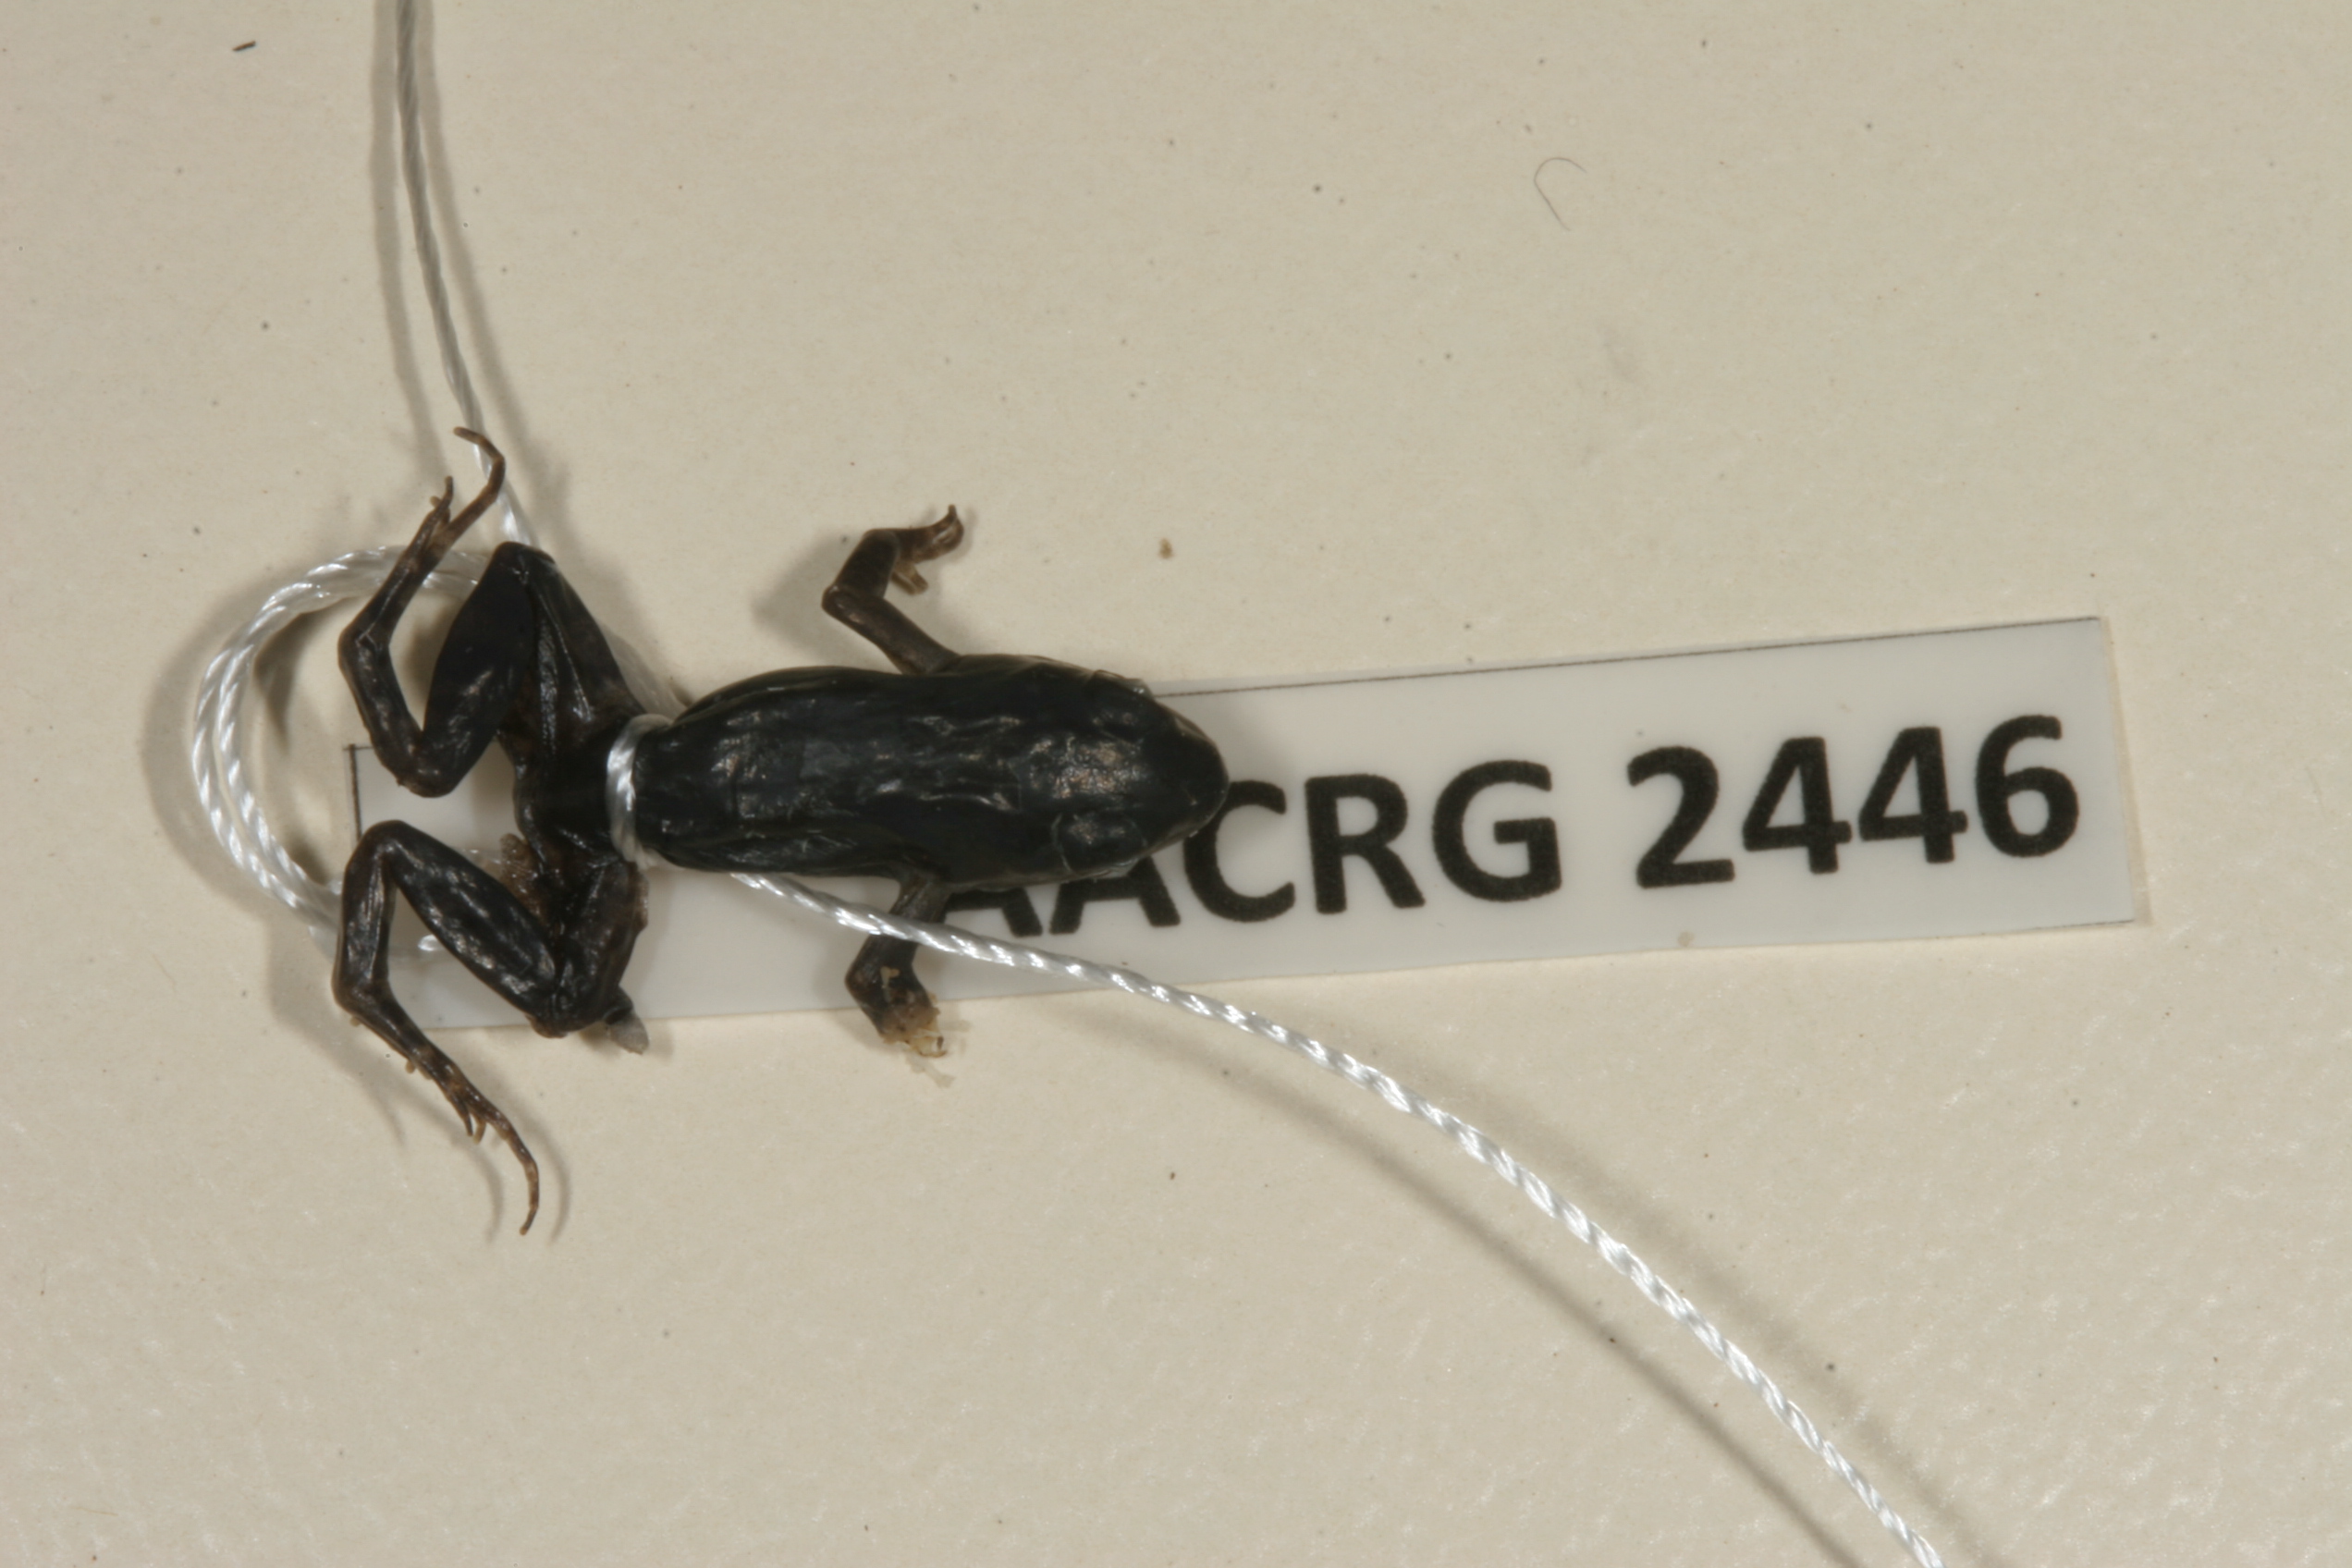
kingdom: Animalia
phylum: Chordata
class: Amphibia
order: Anura
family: Pyxicephalidae
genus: Cacosternum
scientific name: Cacosternum parvum
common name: Mountain caco
